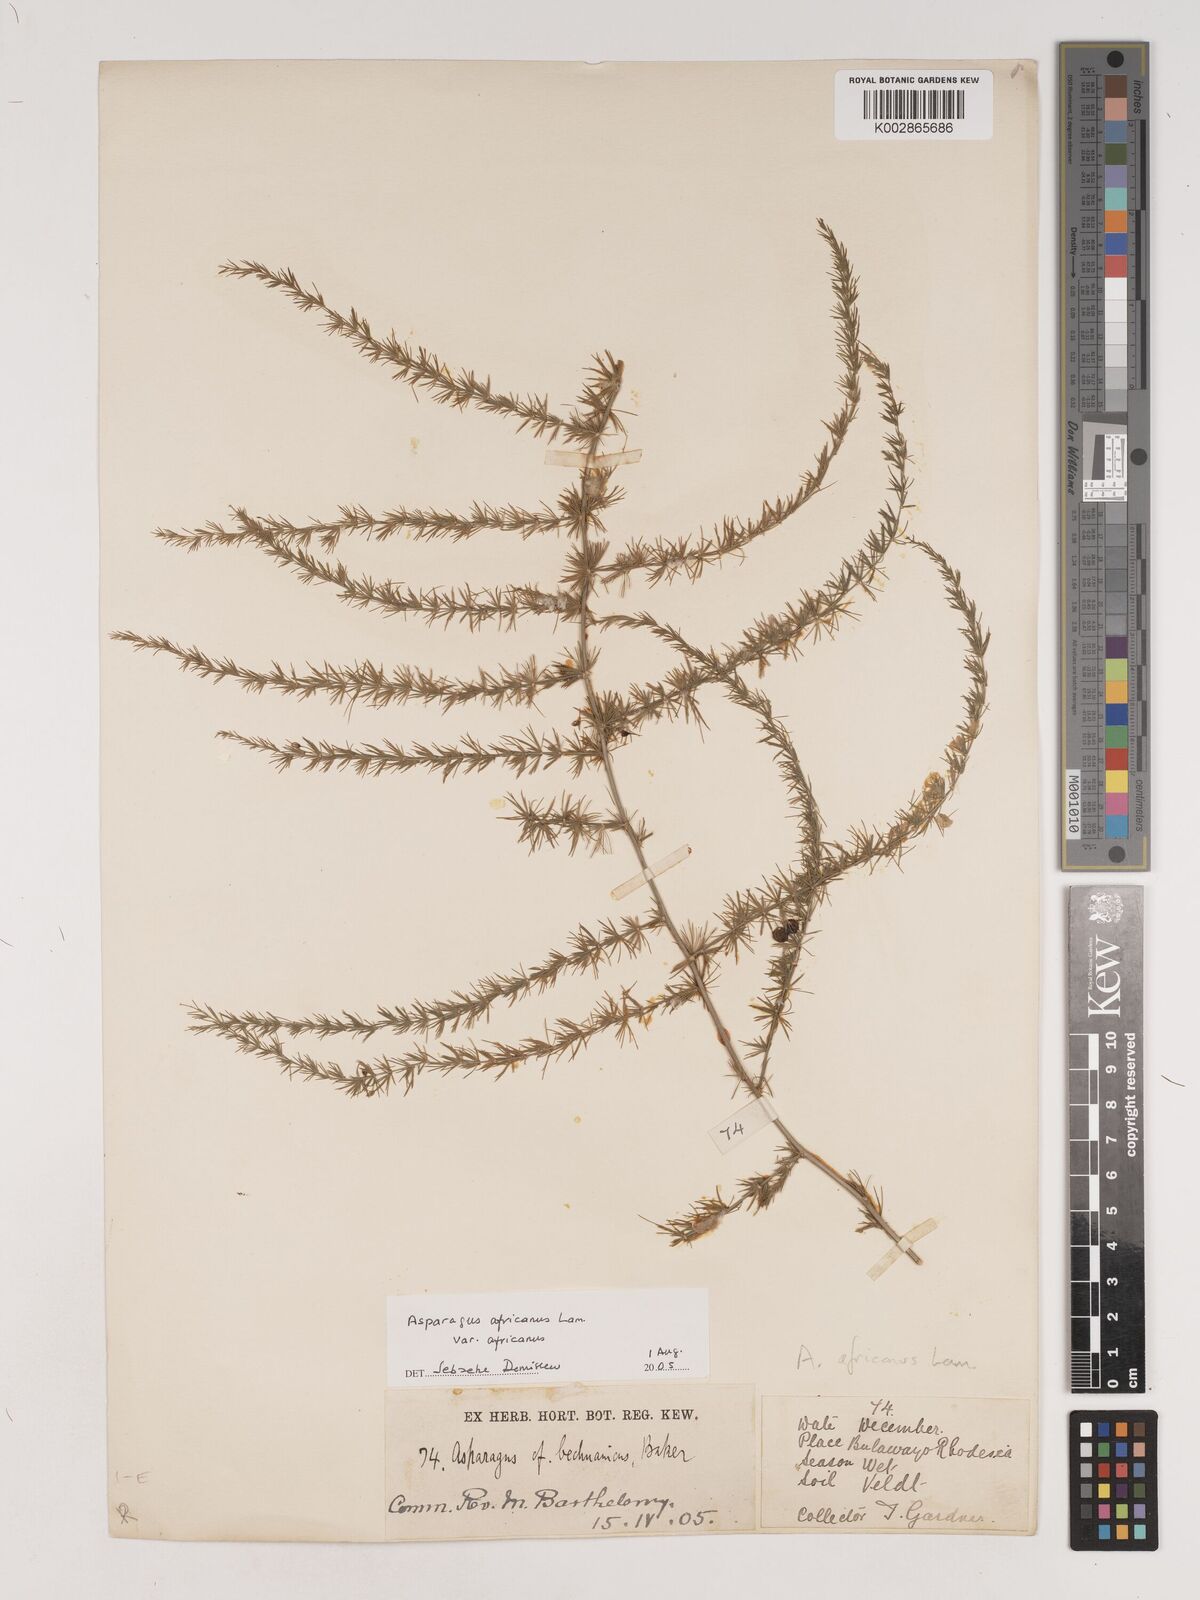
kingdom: Plantae
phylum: Tracheophyta
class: Liliopsida
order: Asparagales
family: Asparagaceae
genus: Asparagus
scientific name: Asparagus
